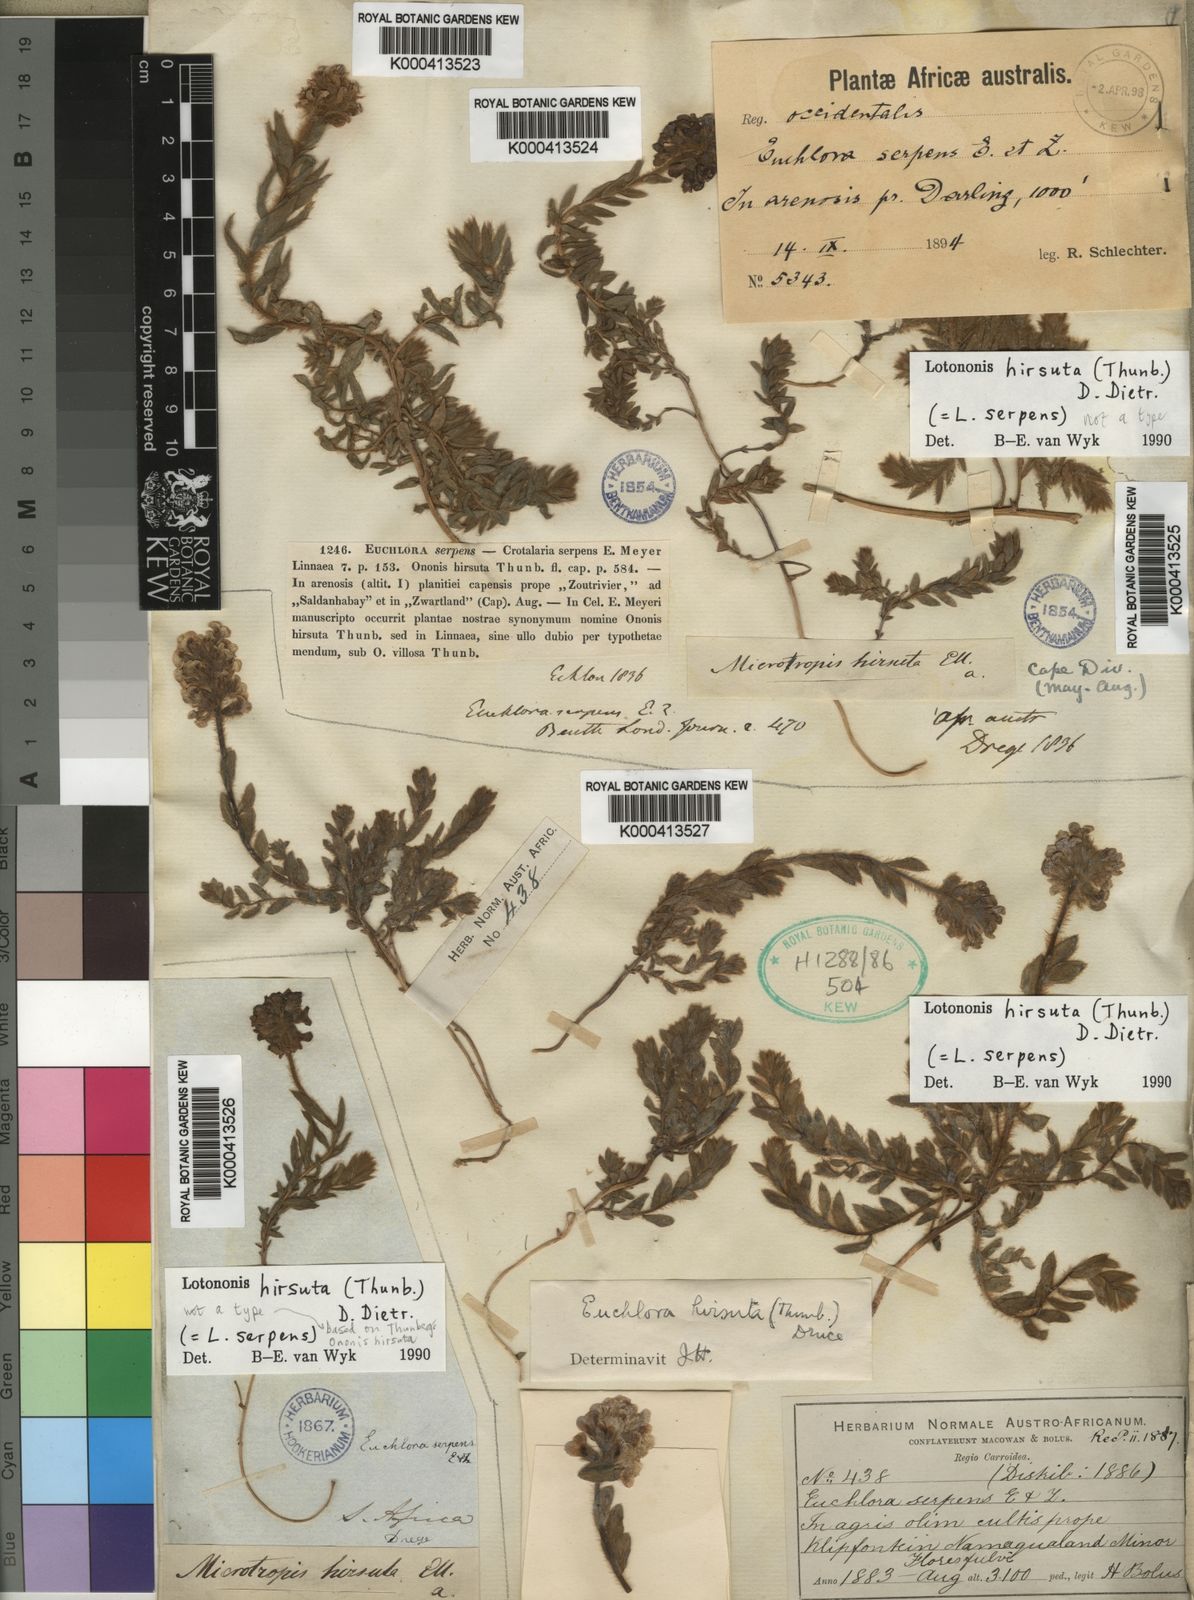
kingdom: Plantae
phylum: Tracheophyta
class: Magnoliopsida
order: Fabales
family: Fabaceae
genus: Lotononis
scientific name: Lotononis
